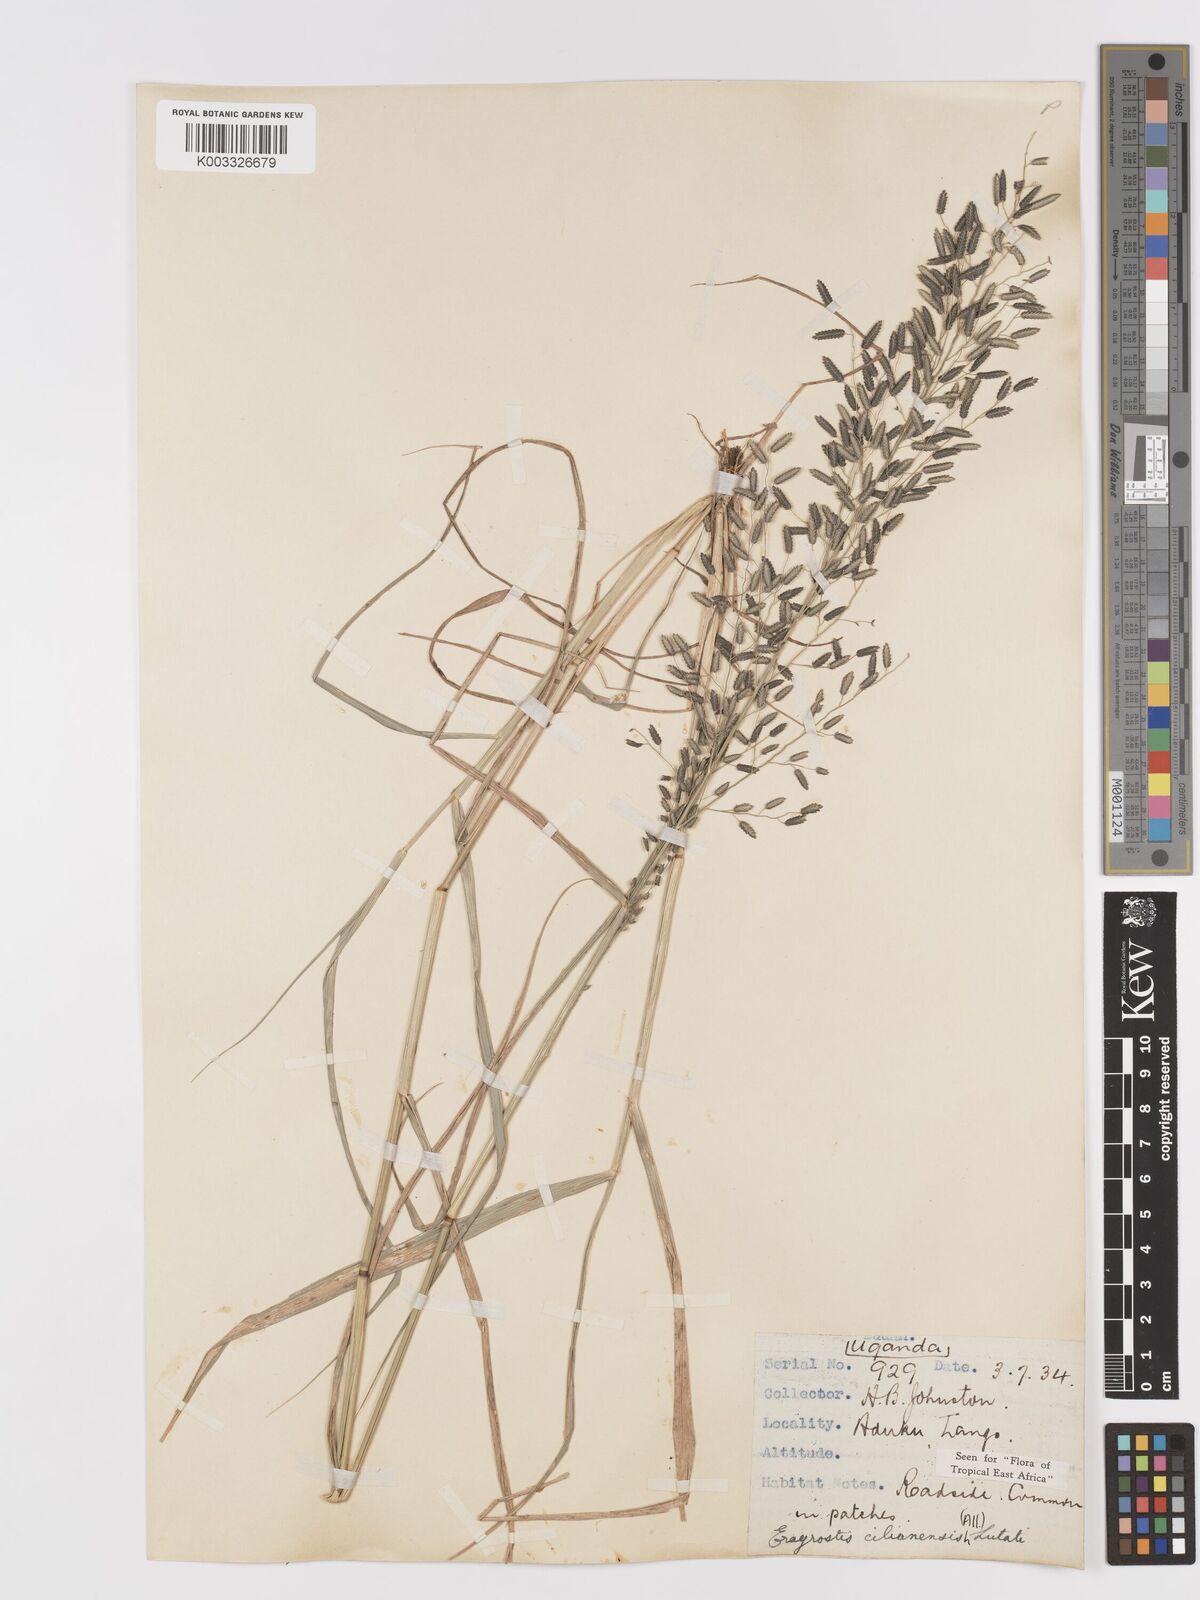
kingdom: Plantae
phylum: Tracheophyta
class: Liliopsida
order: Poales
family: Poaceae
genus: Eragrostis
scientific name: Eragrostis cilianensis
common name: Stinkgrass
